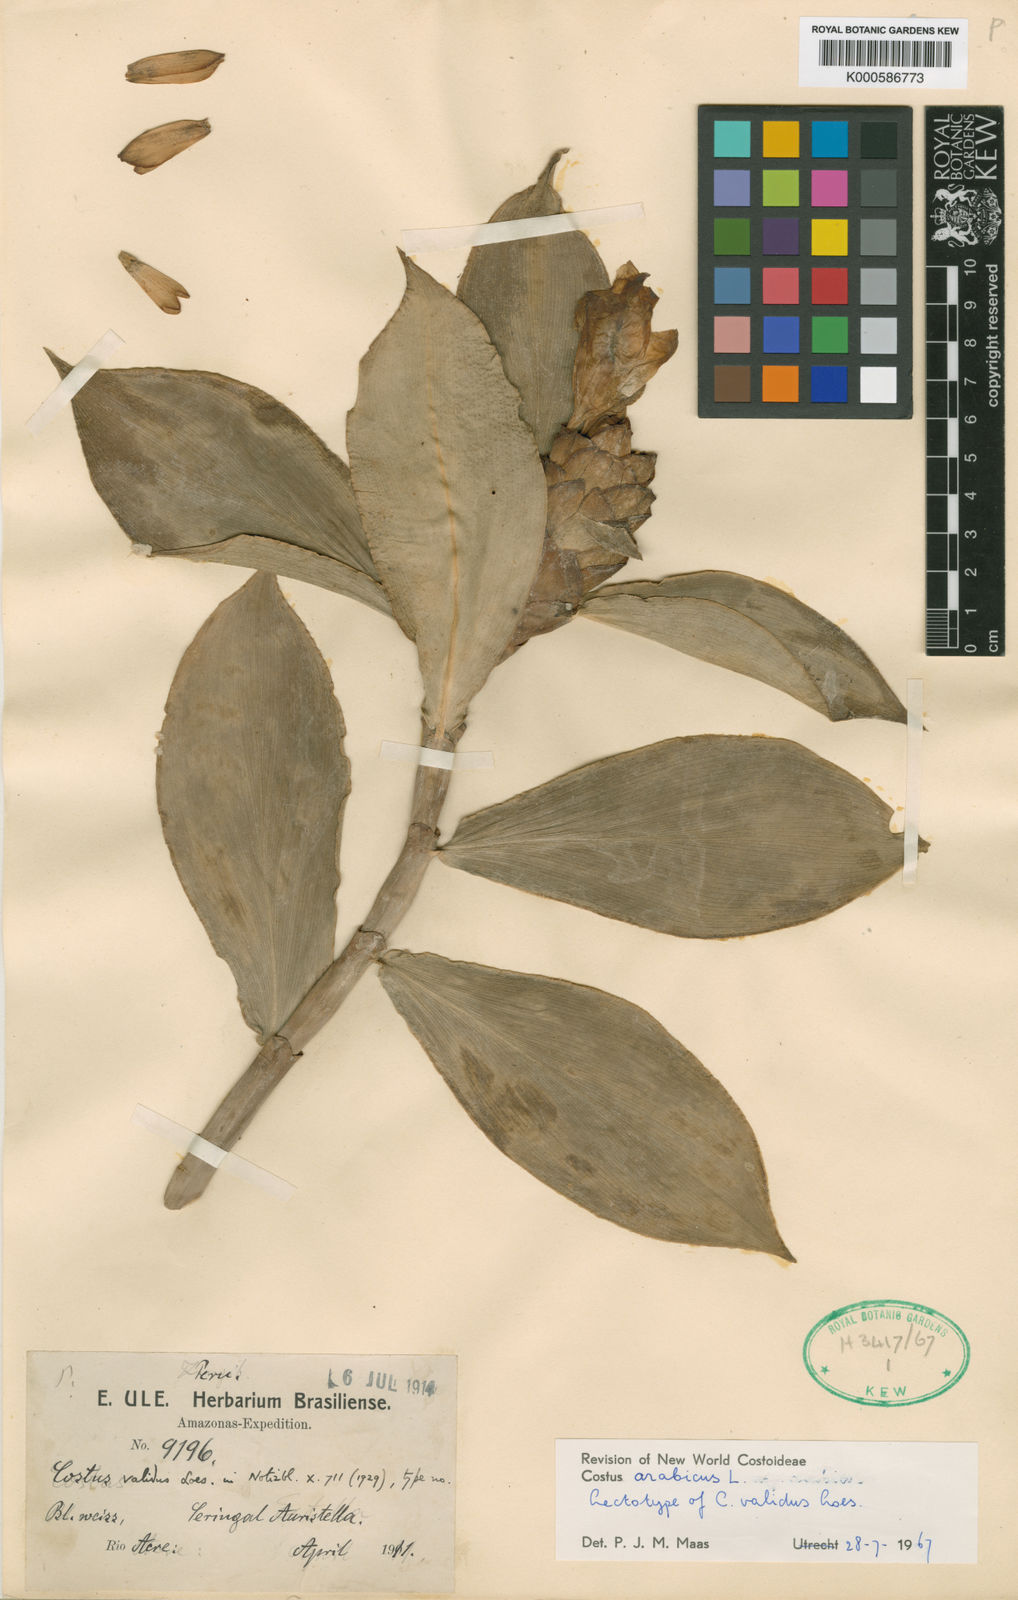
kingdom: Plantae
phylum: Tracheophyta
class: Liliopsida
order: Zingiberales
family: Costaceae
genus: Costus
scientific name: Costus arabicus
